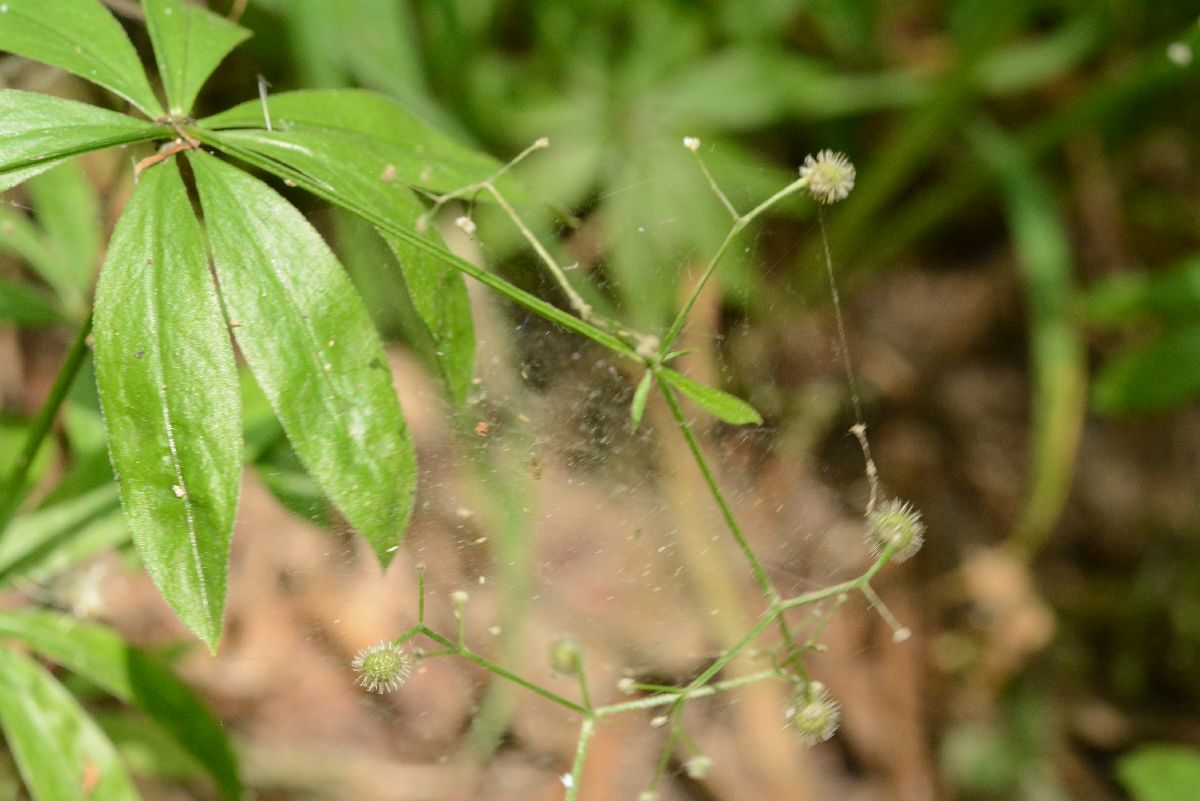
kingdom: Plantae
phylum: Tracheophyta
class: Magnoliopsida
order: Gentianales
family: Rubiaceae
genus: Galium
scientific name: Galium odoratum
